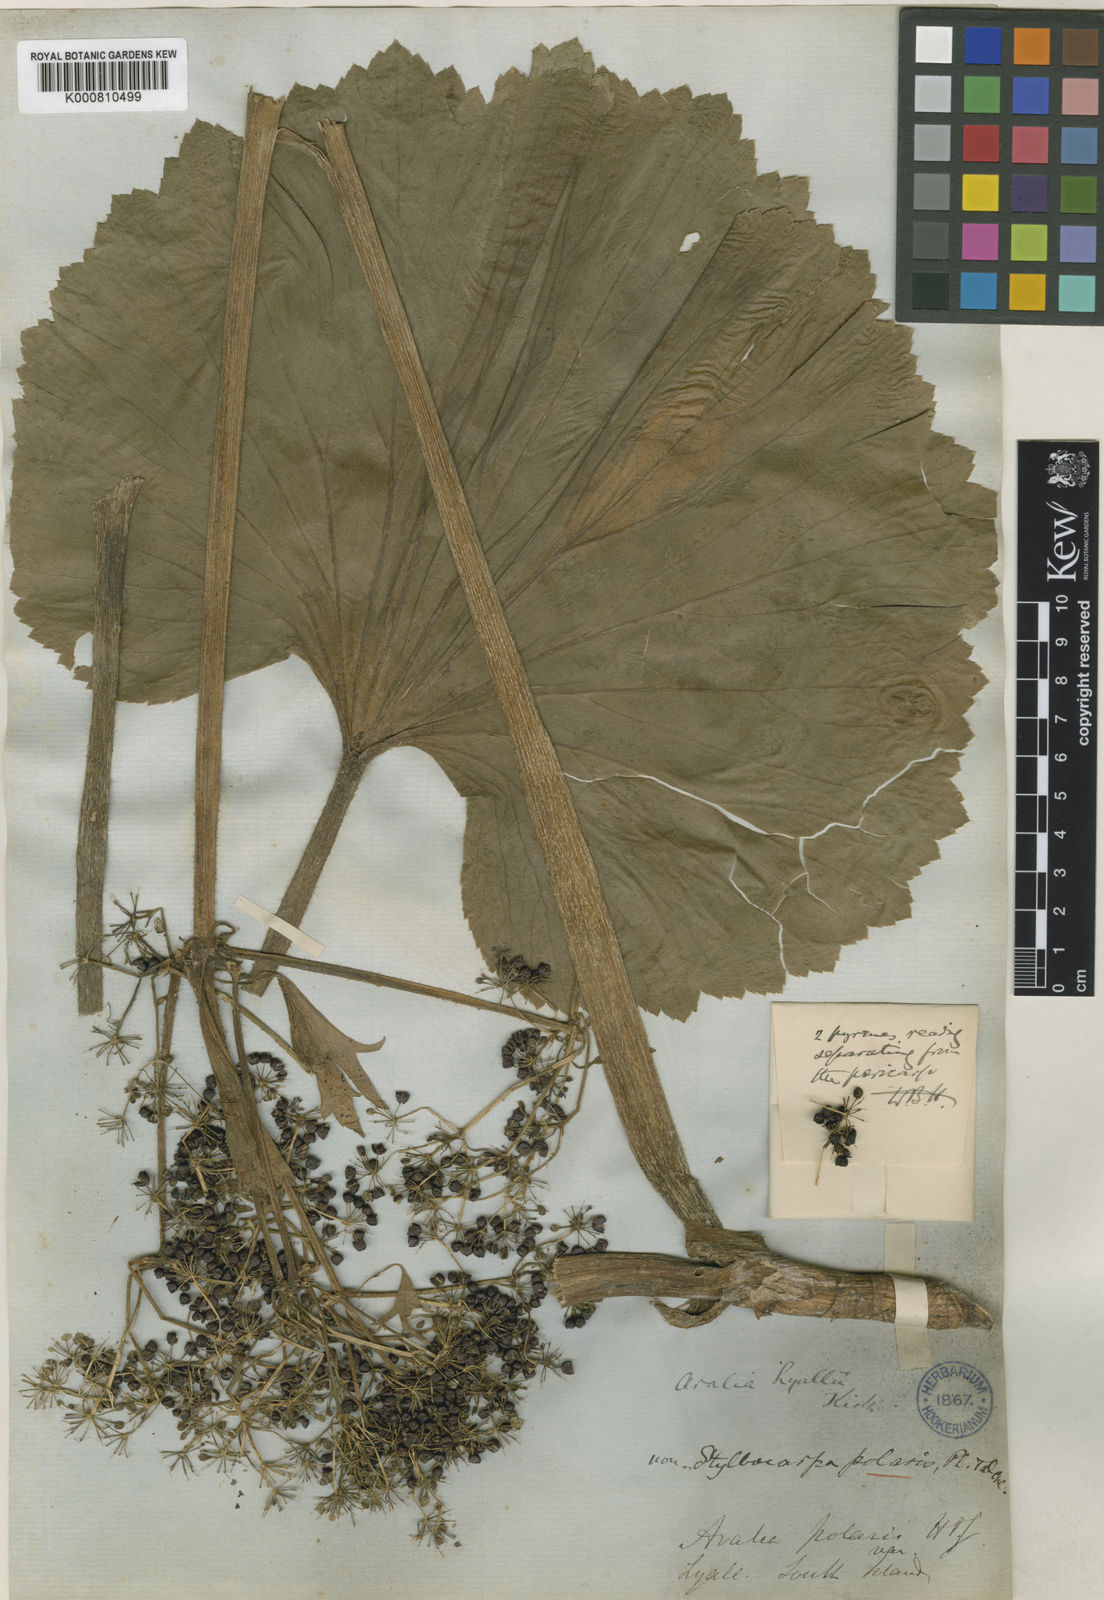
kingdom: Plantae
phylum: Tracheophyta
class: Magnoliopsida
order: Apiales
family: Apiaceae
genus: Azorella
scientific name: Azorella lyallii
